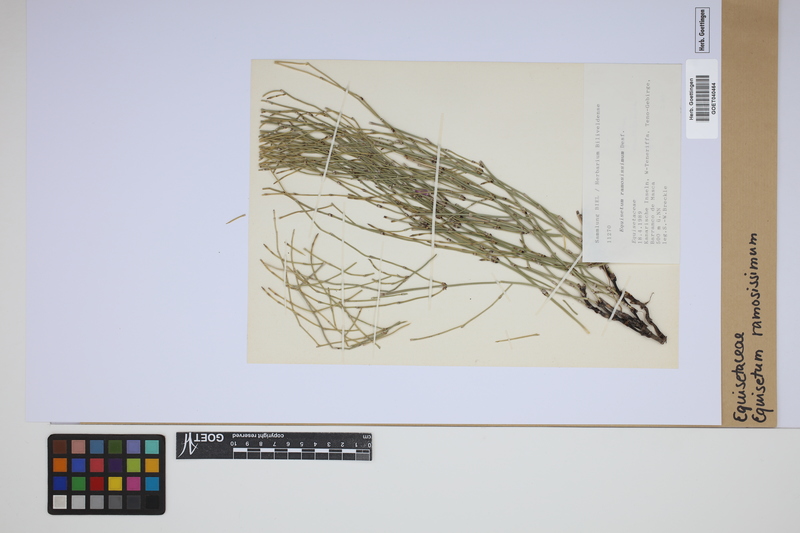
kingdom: Plantae
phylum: Tracheophyta
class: Polypodiopsida
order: Equisetales
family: Equisetaceae
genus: Equisetum
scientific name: Equisetum ramosissimum
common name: Branched horsetail
